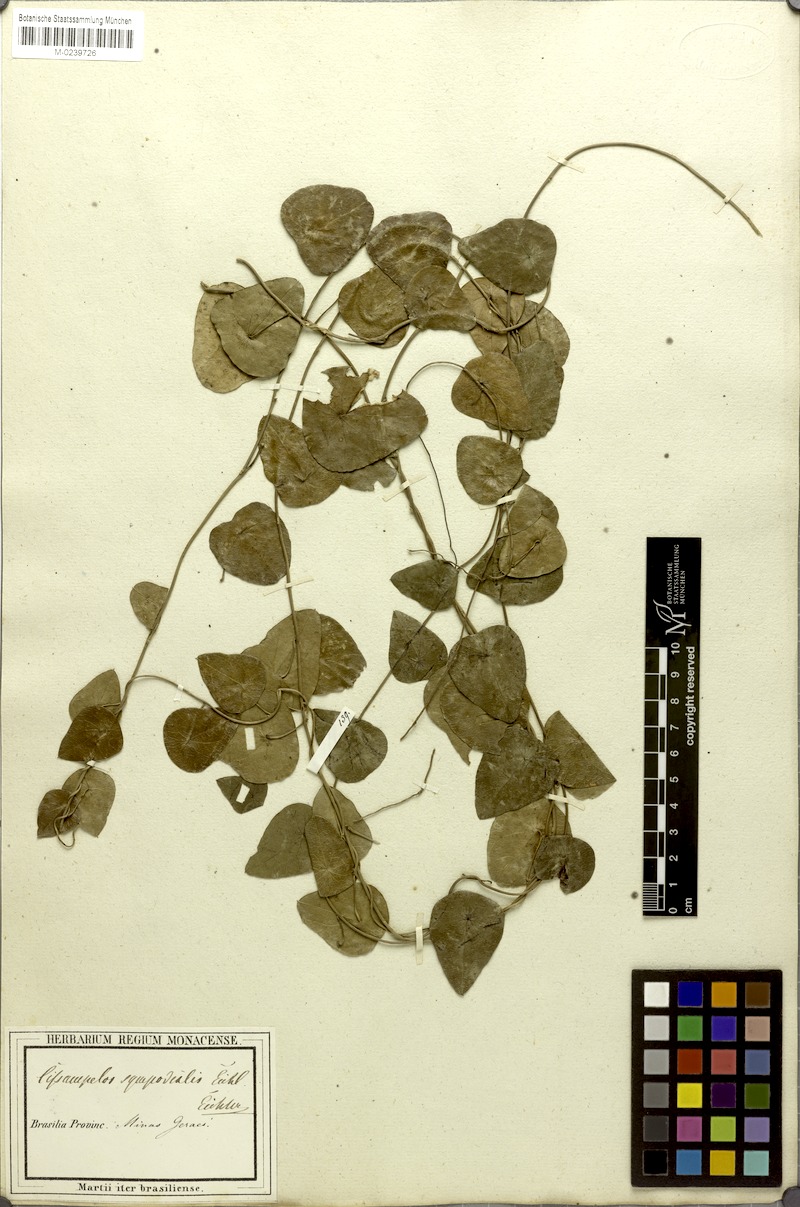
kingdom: Plantae
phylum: Tracheophyta
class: Magnoliopsida
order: Ranunculales
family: Menispermaceae
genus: Cissampelos
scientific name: Cissampelos sympodialis
